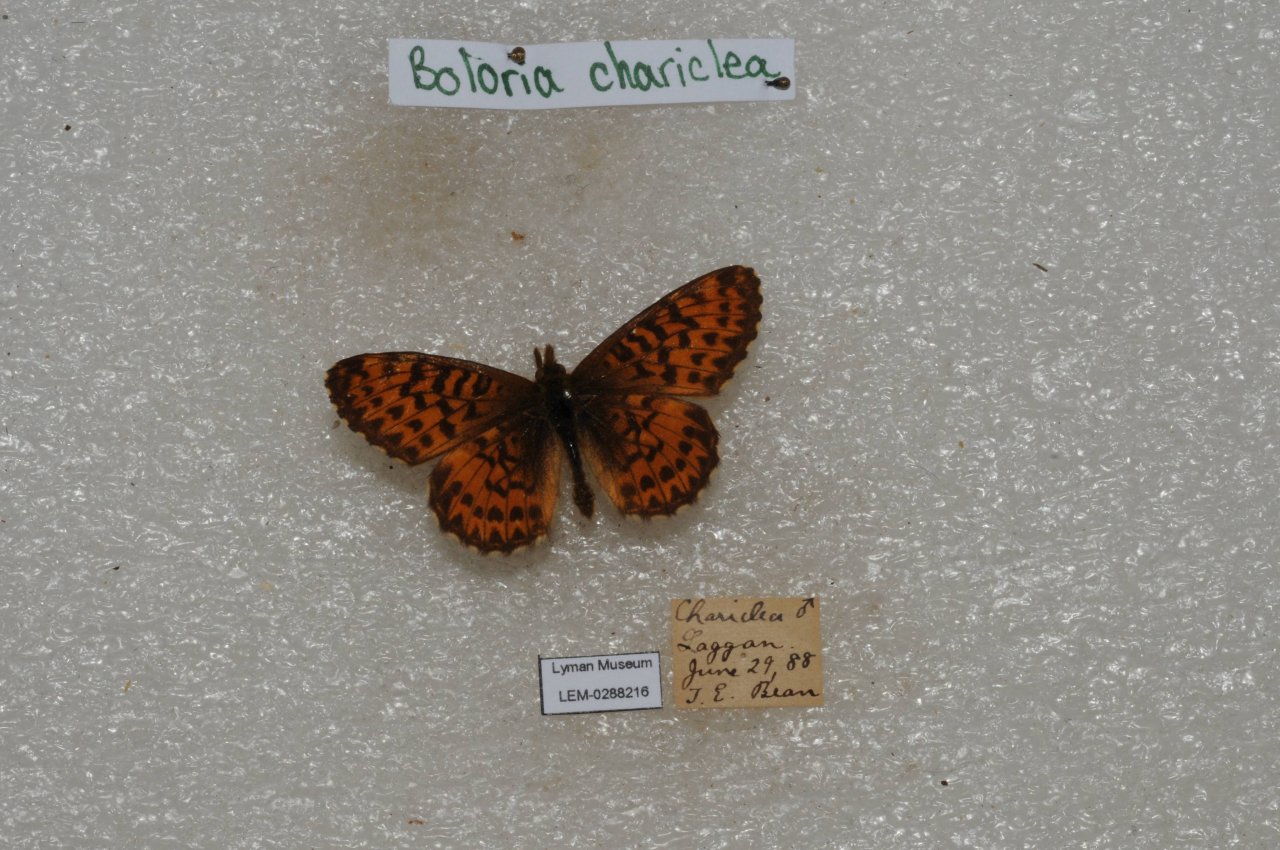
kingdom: Animalia
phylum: Arthropoda
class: Insecta
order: Lepidoptera
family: Nymphalidae
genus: Boloria
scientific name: Boloria chariclea
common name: Arctic Fritillary
